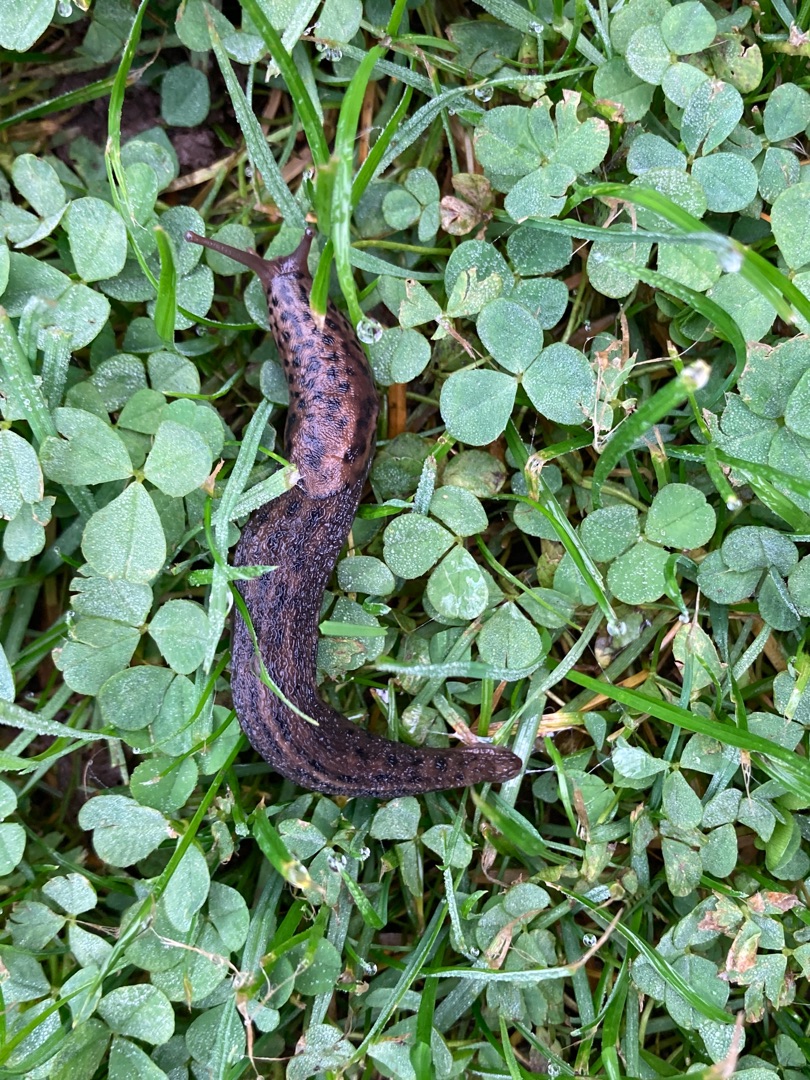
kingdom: Animalia
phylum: Mollusca
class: Gastropoda
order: Stylommatophora
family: Limacidae
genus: Limax
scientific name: Limax maximus
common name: Pantersnegl
